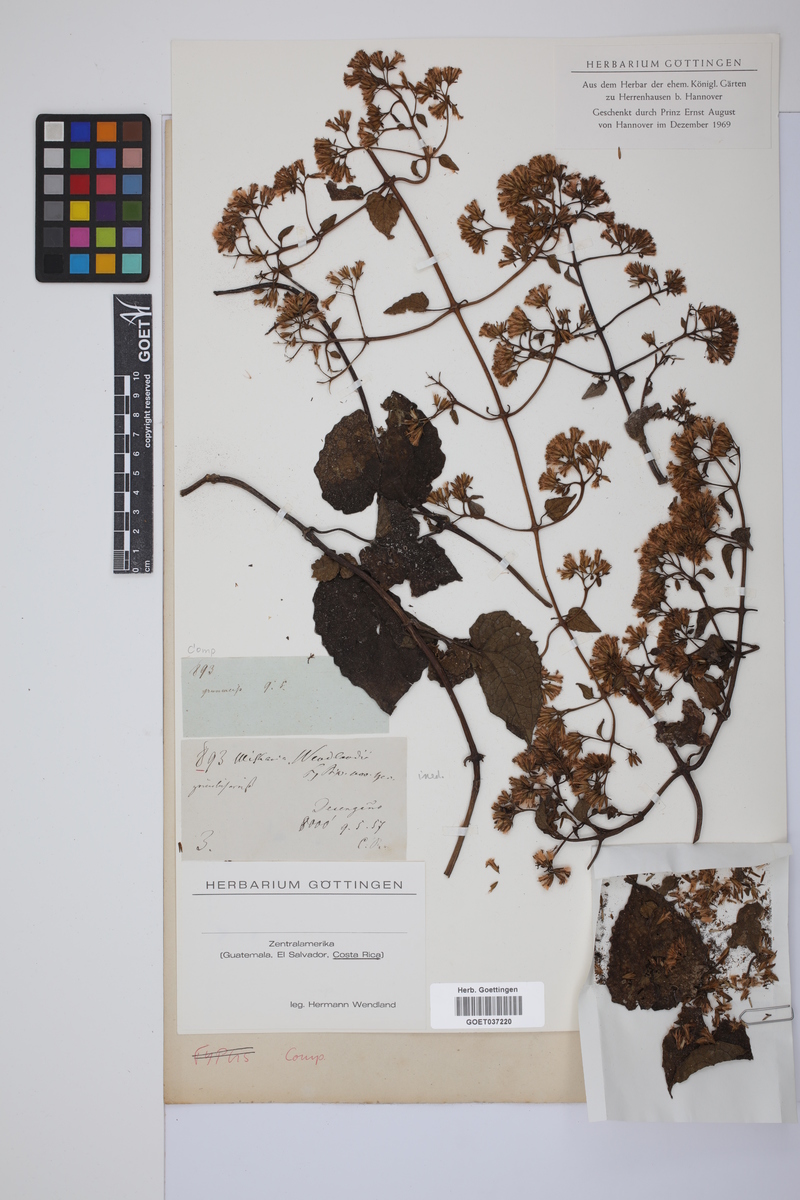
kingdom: Plantae
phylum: Tracheophyta
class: Magnoliopsida
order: Asterales
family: Asteraceae
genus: Mikania
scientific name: Mikania
